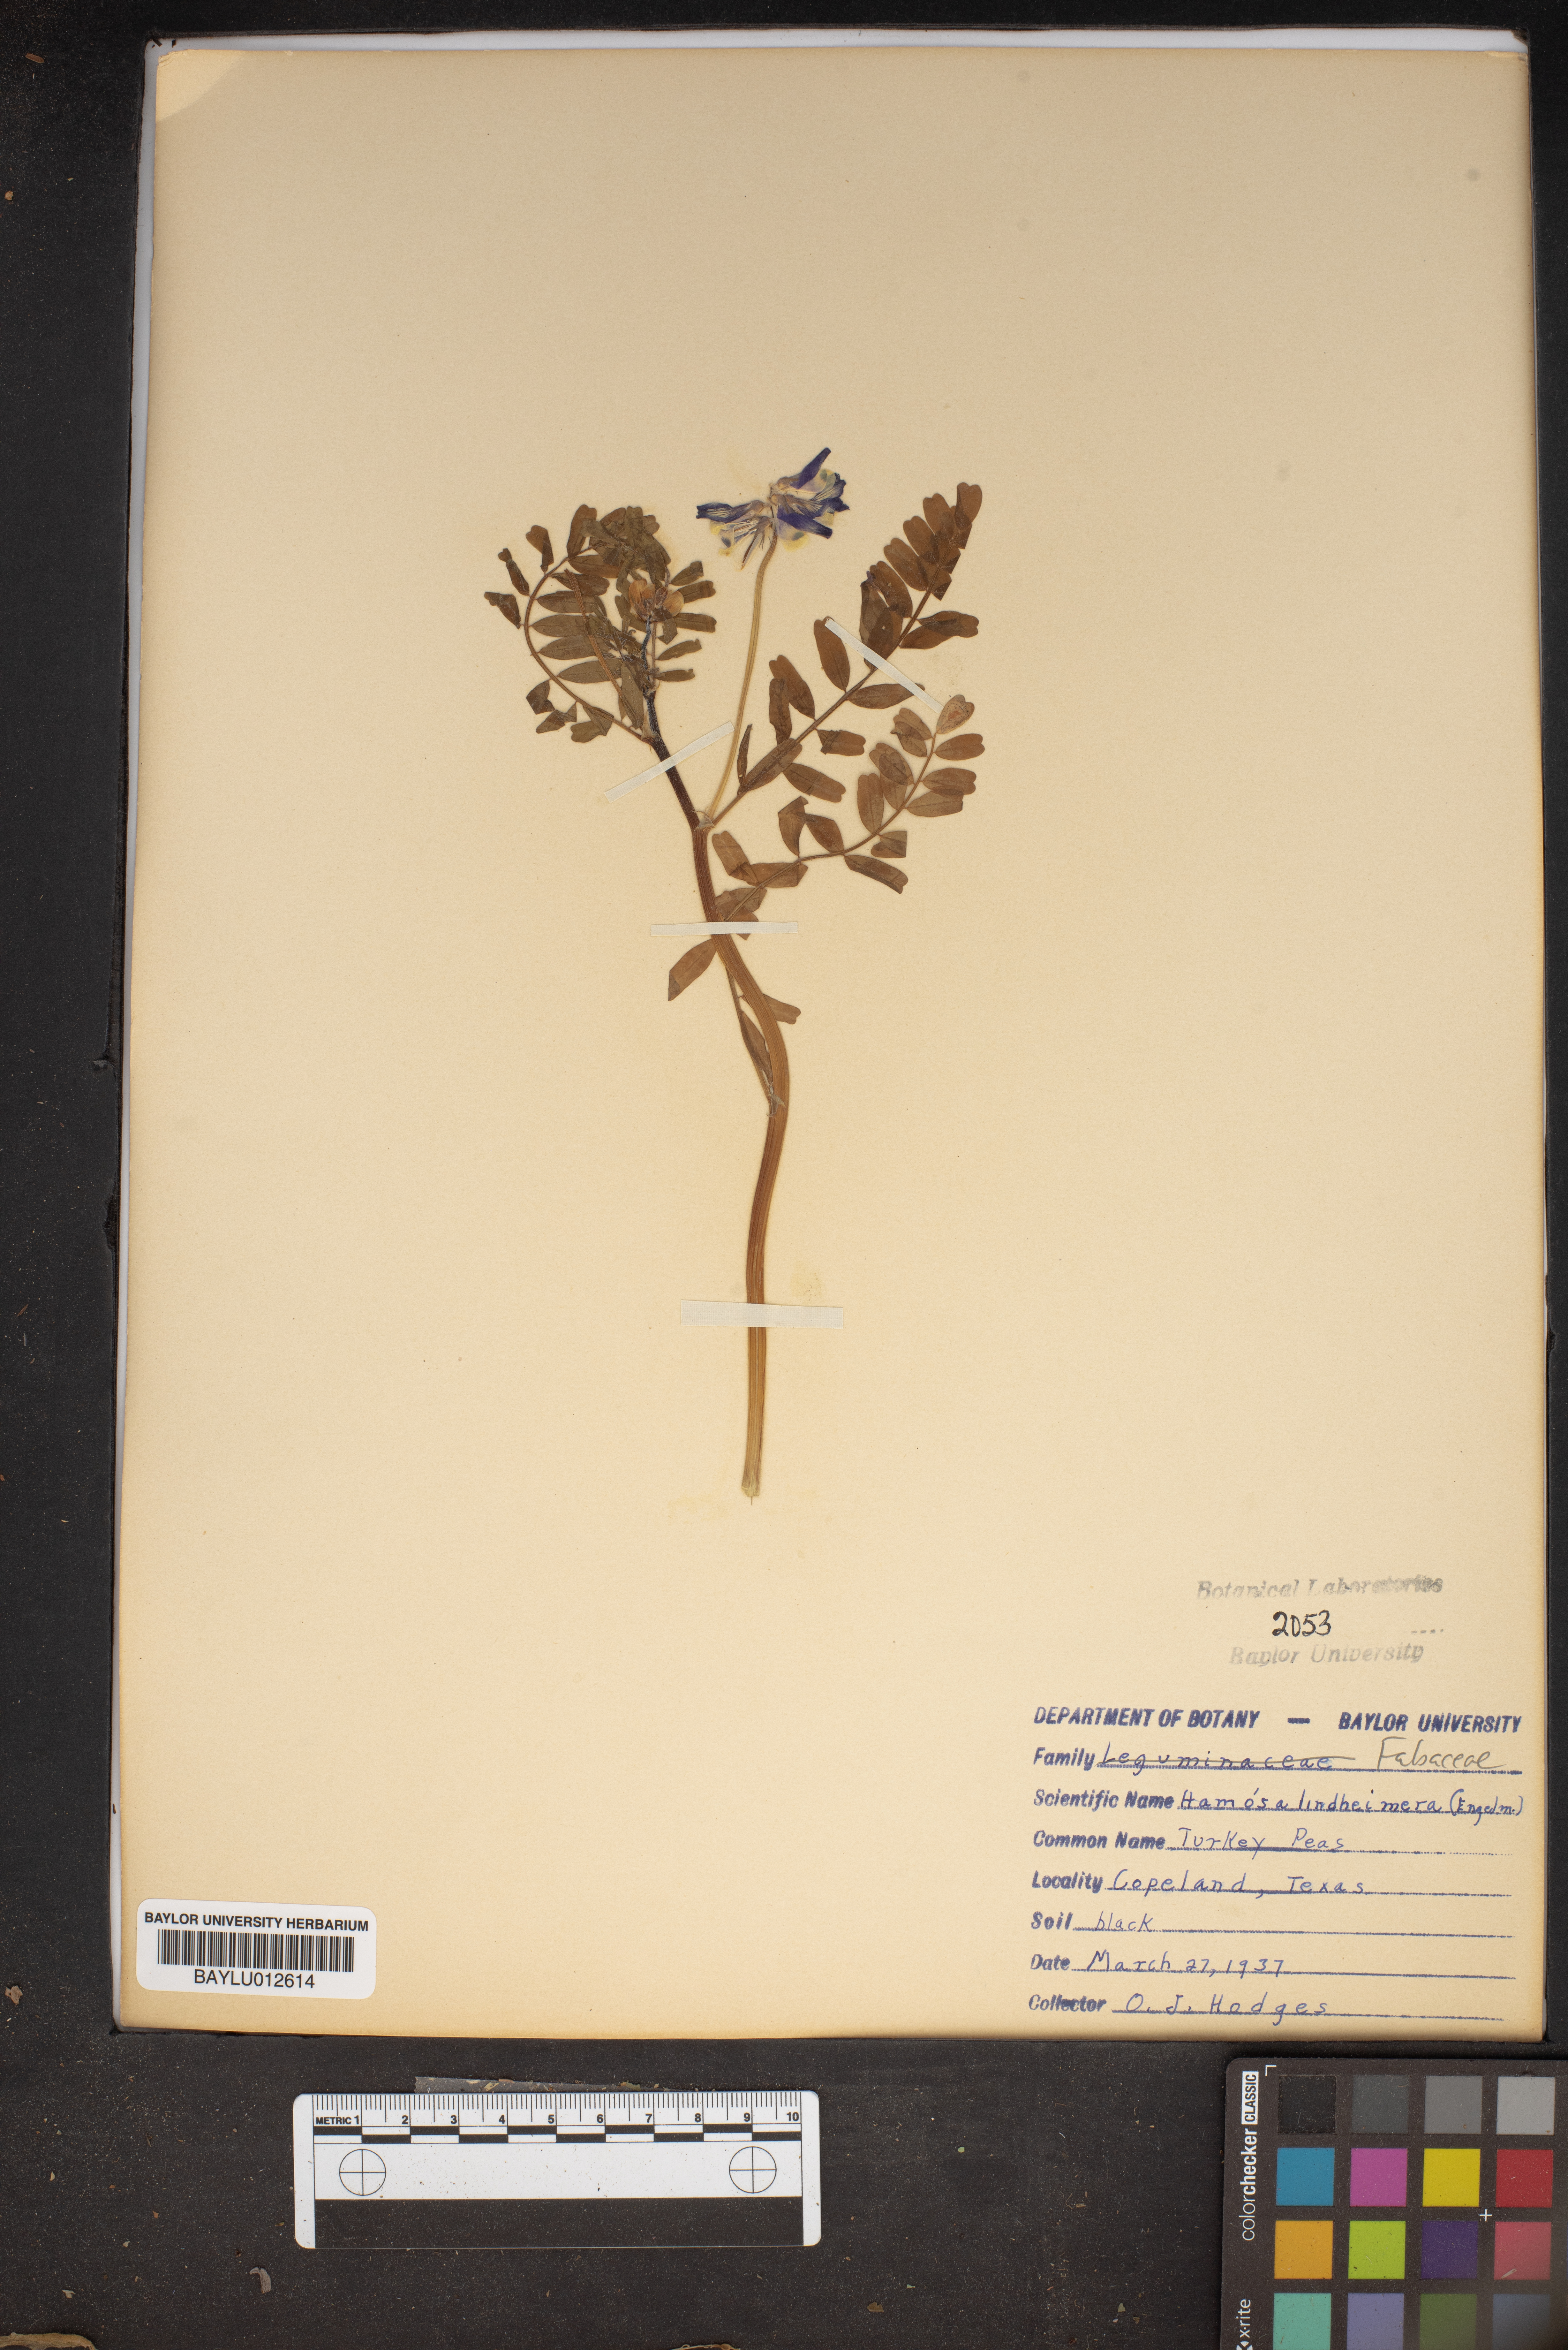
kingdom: Plantae
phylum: Tracheophyta
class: Magnoliopsida
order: Fabales
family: Fabaceae
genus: Astragalus
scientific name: Astragalus lindheimeri
